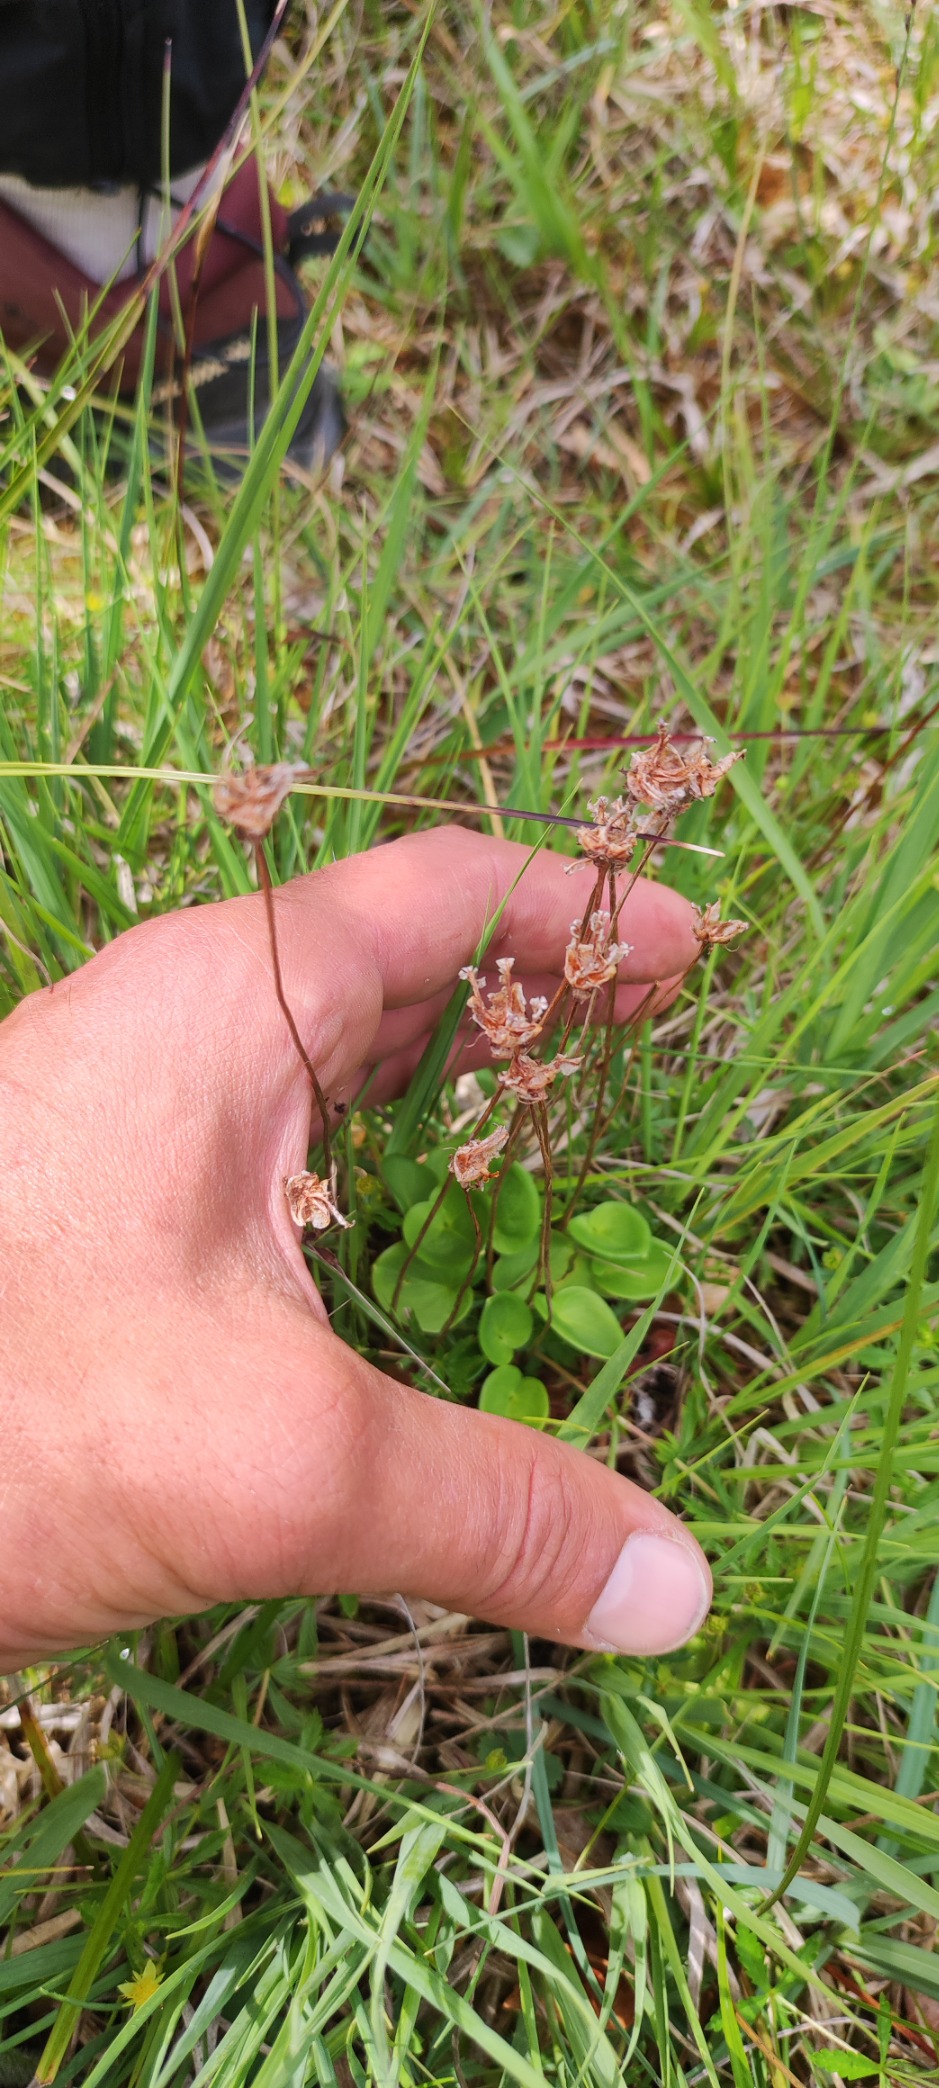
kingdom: Plantae
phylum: Tracheophyta
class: Magnoliopsida
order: Celastrales
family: Parnassiaceae
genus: Parnassia
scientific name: Parnassia palustris
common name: Leverurt
